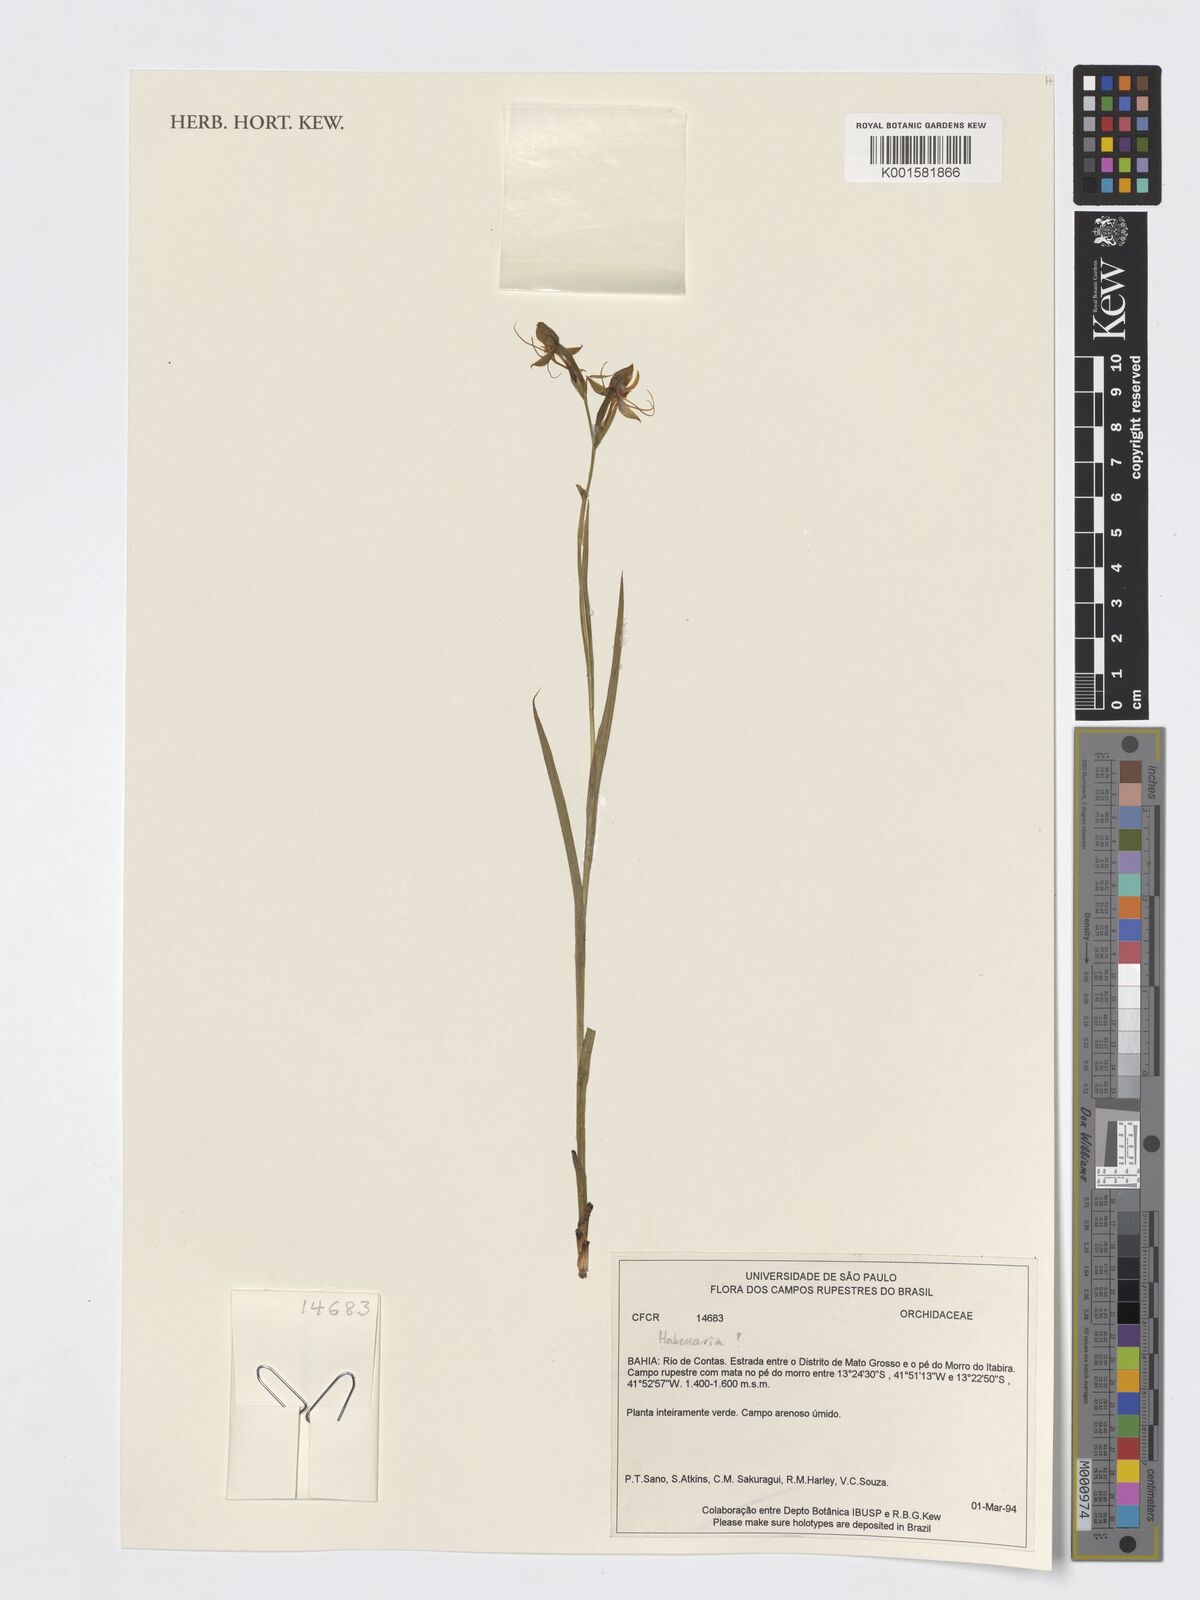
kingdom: Plantae
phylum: Tracheophyta
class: Liliopsida
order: Asparagales
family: Orchidaceae
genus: Habenaria
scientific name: Habenaria
